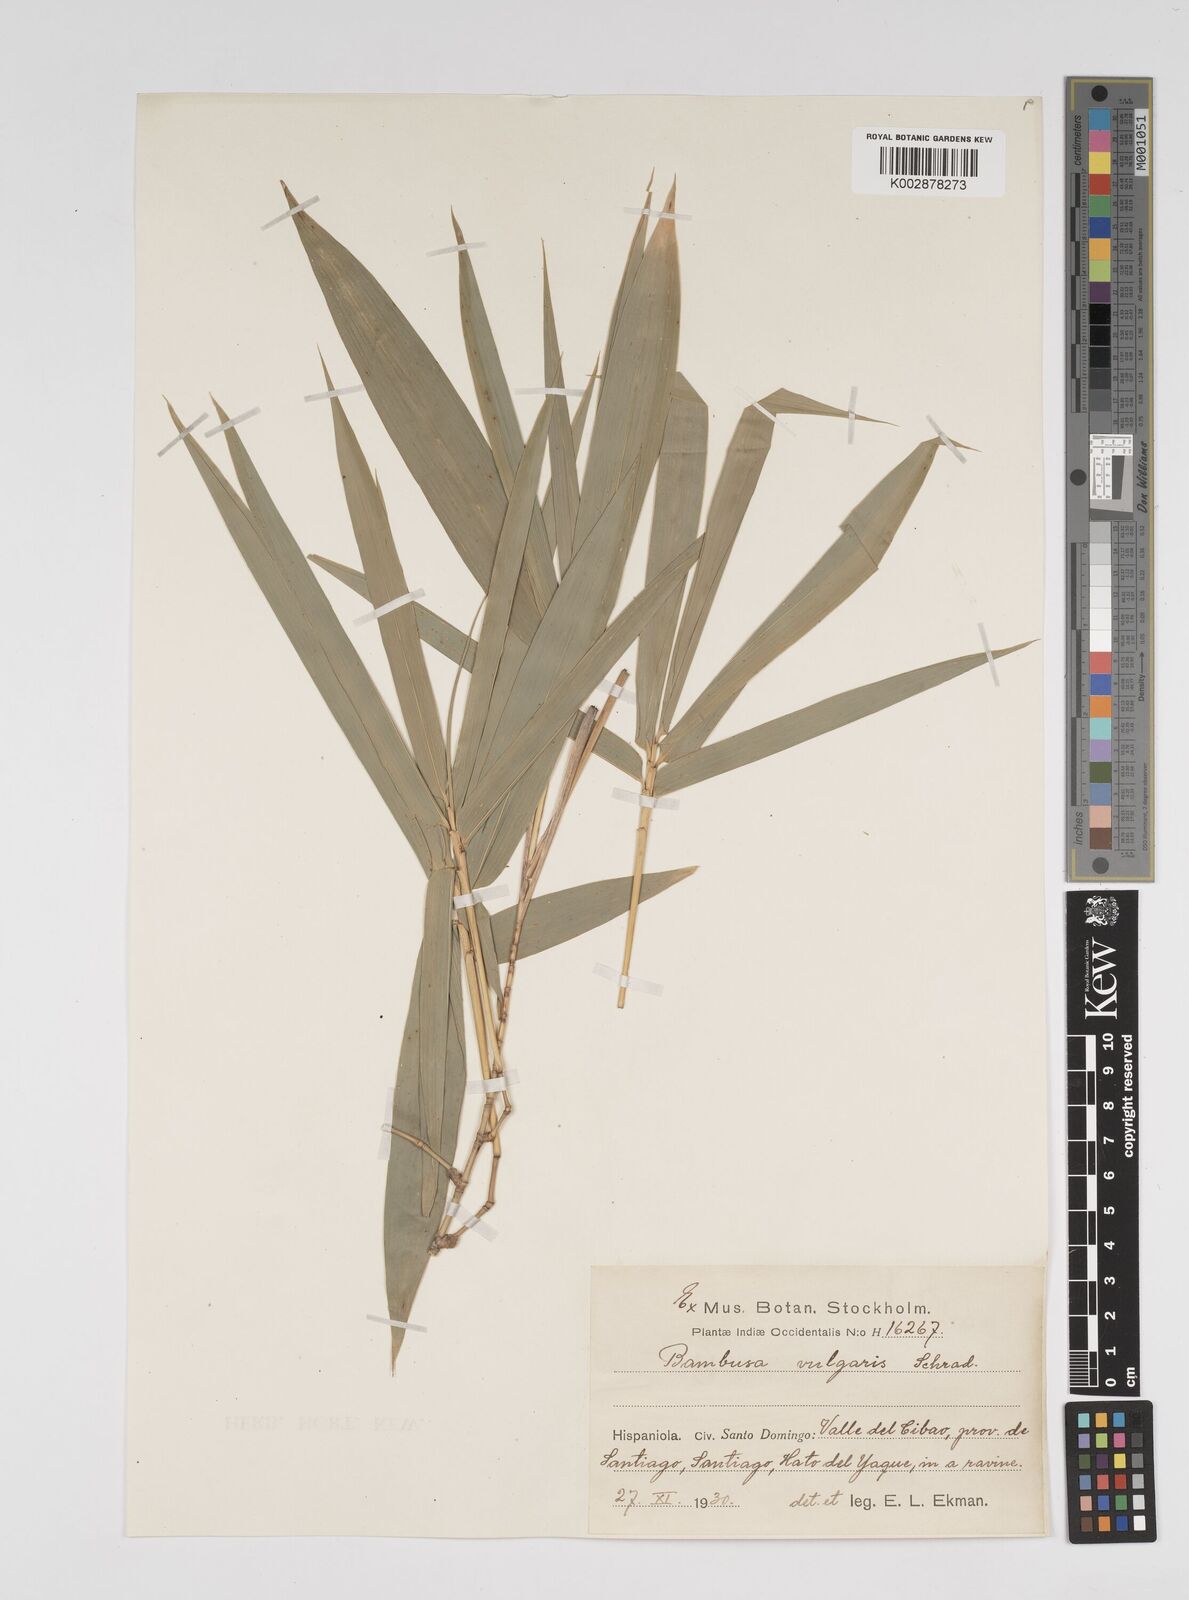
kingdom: Plantae
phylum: Tracheophyta
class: Liliopsida
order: Poales
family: Poaceae
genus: Bambusa
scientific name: Bambusa vulgaris
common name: Common bamboo
